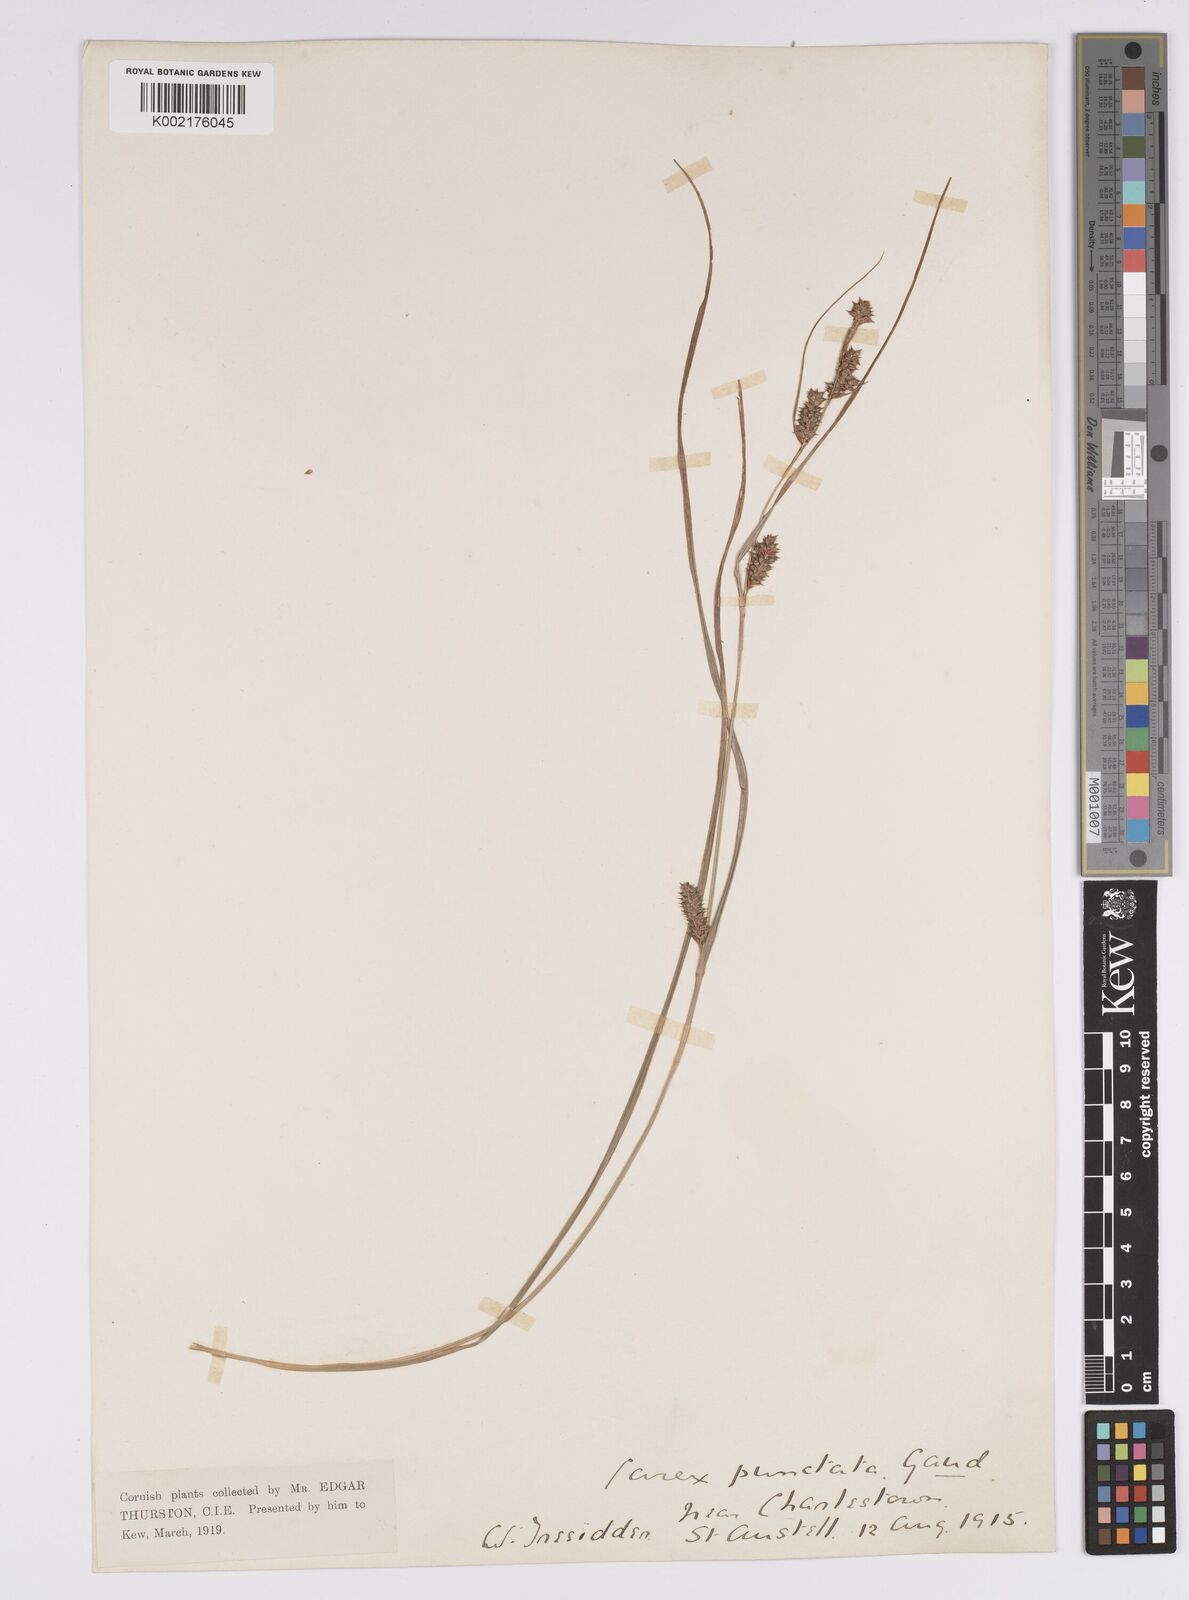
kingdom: Plantae
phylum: Tracheophyta
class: Liliopsida
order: Poales
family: Cyperaceae
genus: Carex
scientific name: Carex punctata
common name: Dotted sedge
